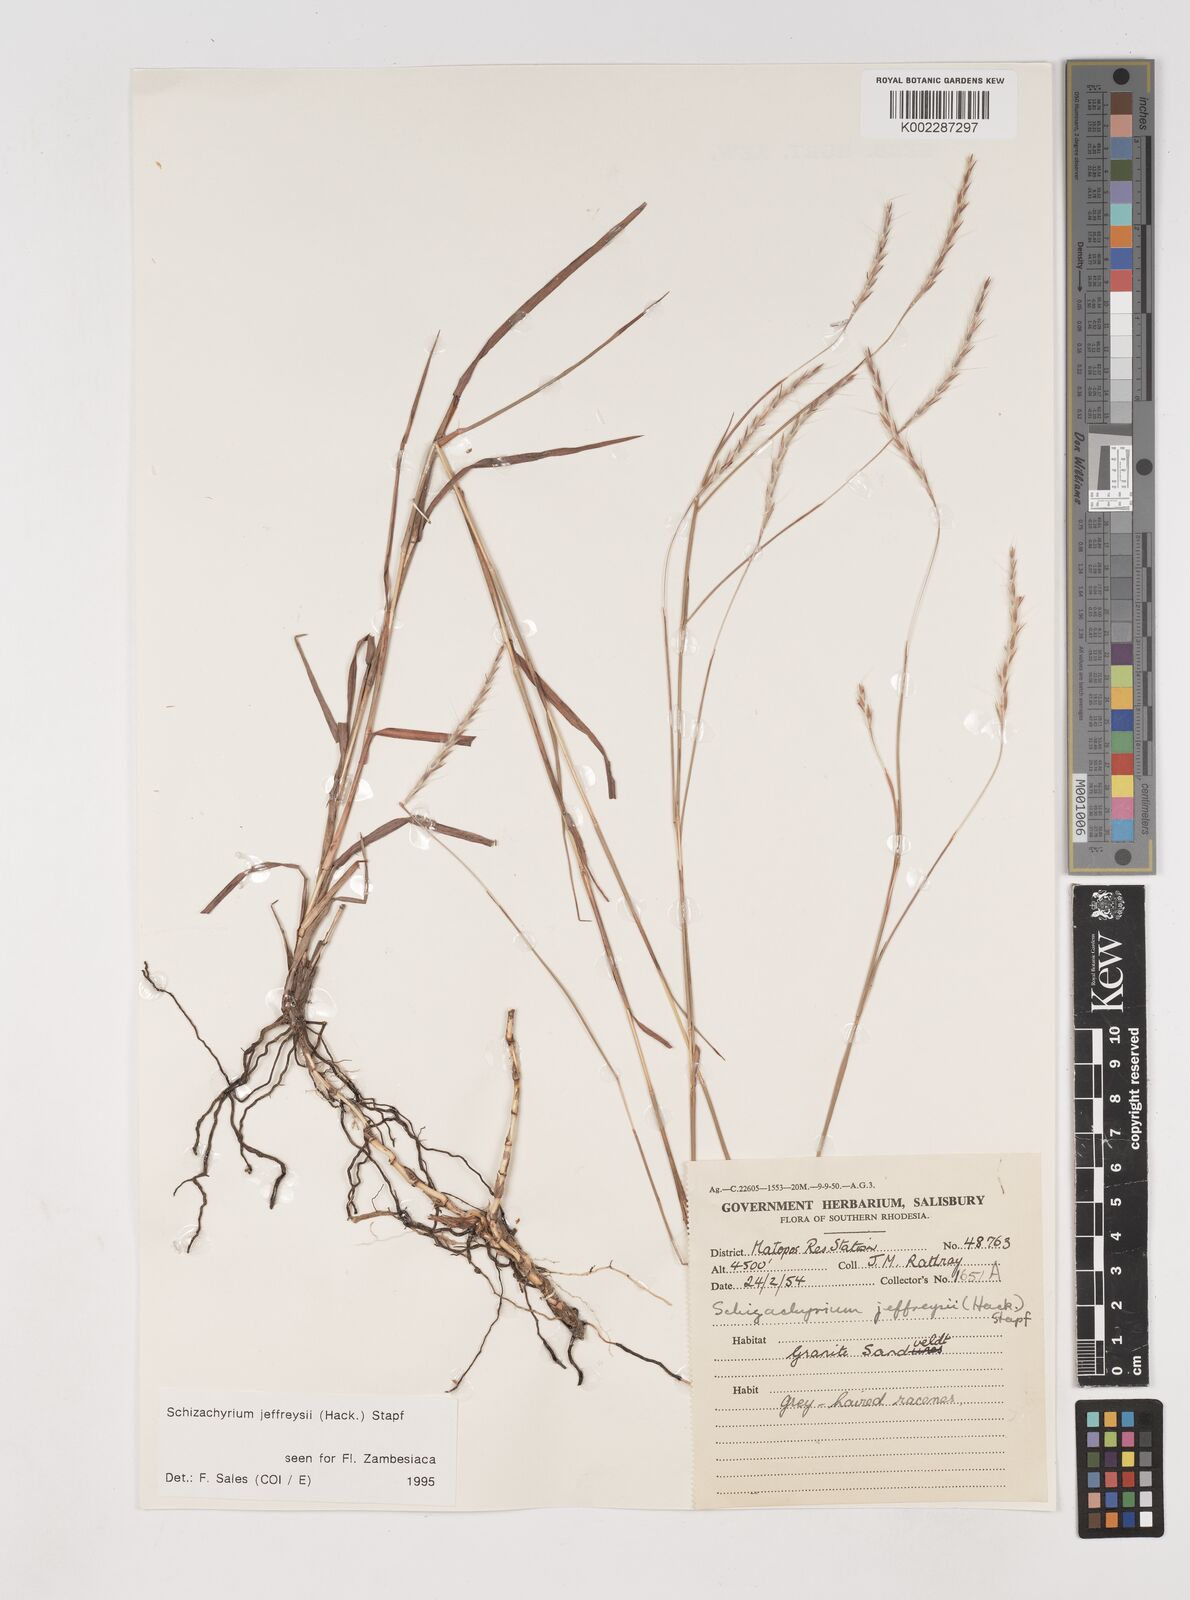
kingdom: Plantae
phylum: Tracheophyta
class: Liliopsida
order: Poales
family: Poaceae
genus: Schizachyrium
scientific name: Schizachyrium jeffreysii
